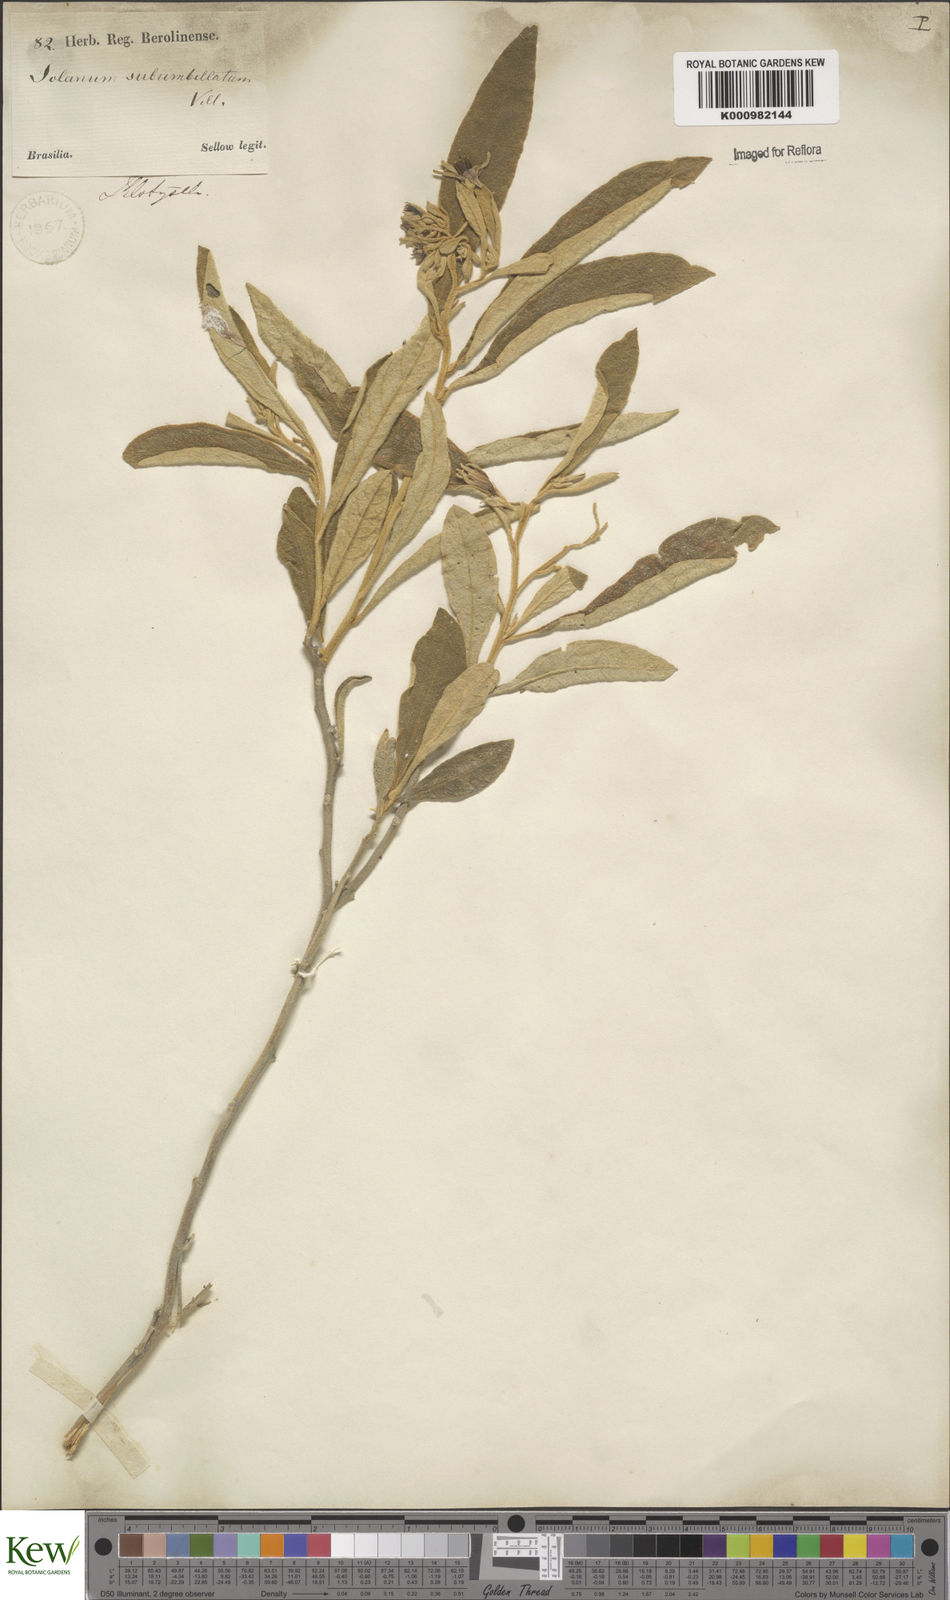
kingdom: Plantae
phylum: Tracheophyta
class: Magnoliopsida
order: Solanales
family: Solanaceae
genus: Solanum
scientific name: Solanum subumbellatum
